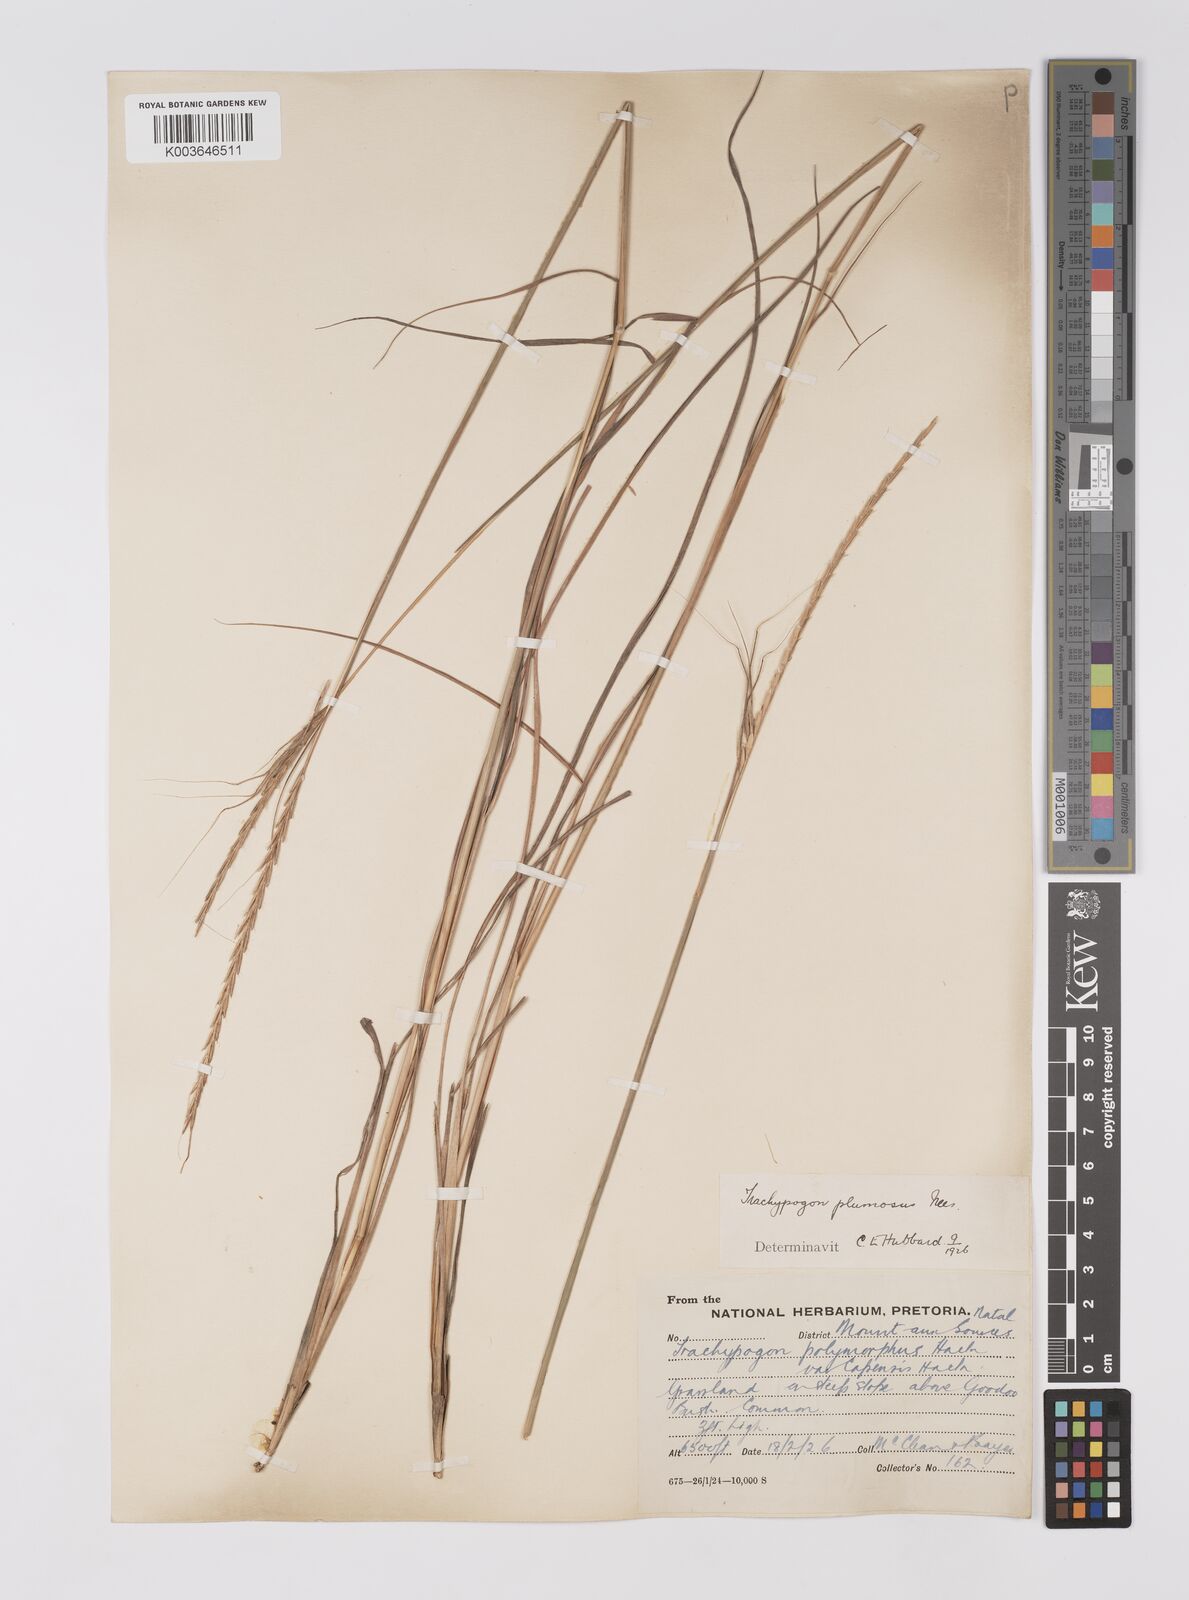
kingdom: Plantae
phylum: Tracheophyta
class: Liliopsida
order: Poales
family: Poaceae
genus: Trachypogon
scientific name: Trachypogon spicatus
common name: Crinkle-awn
